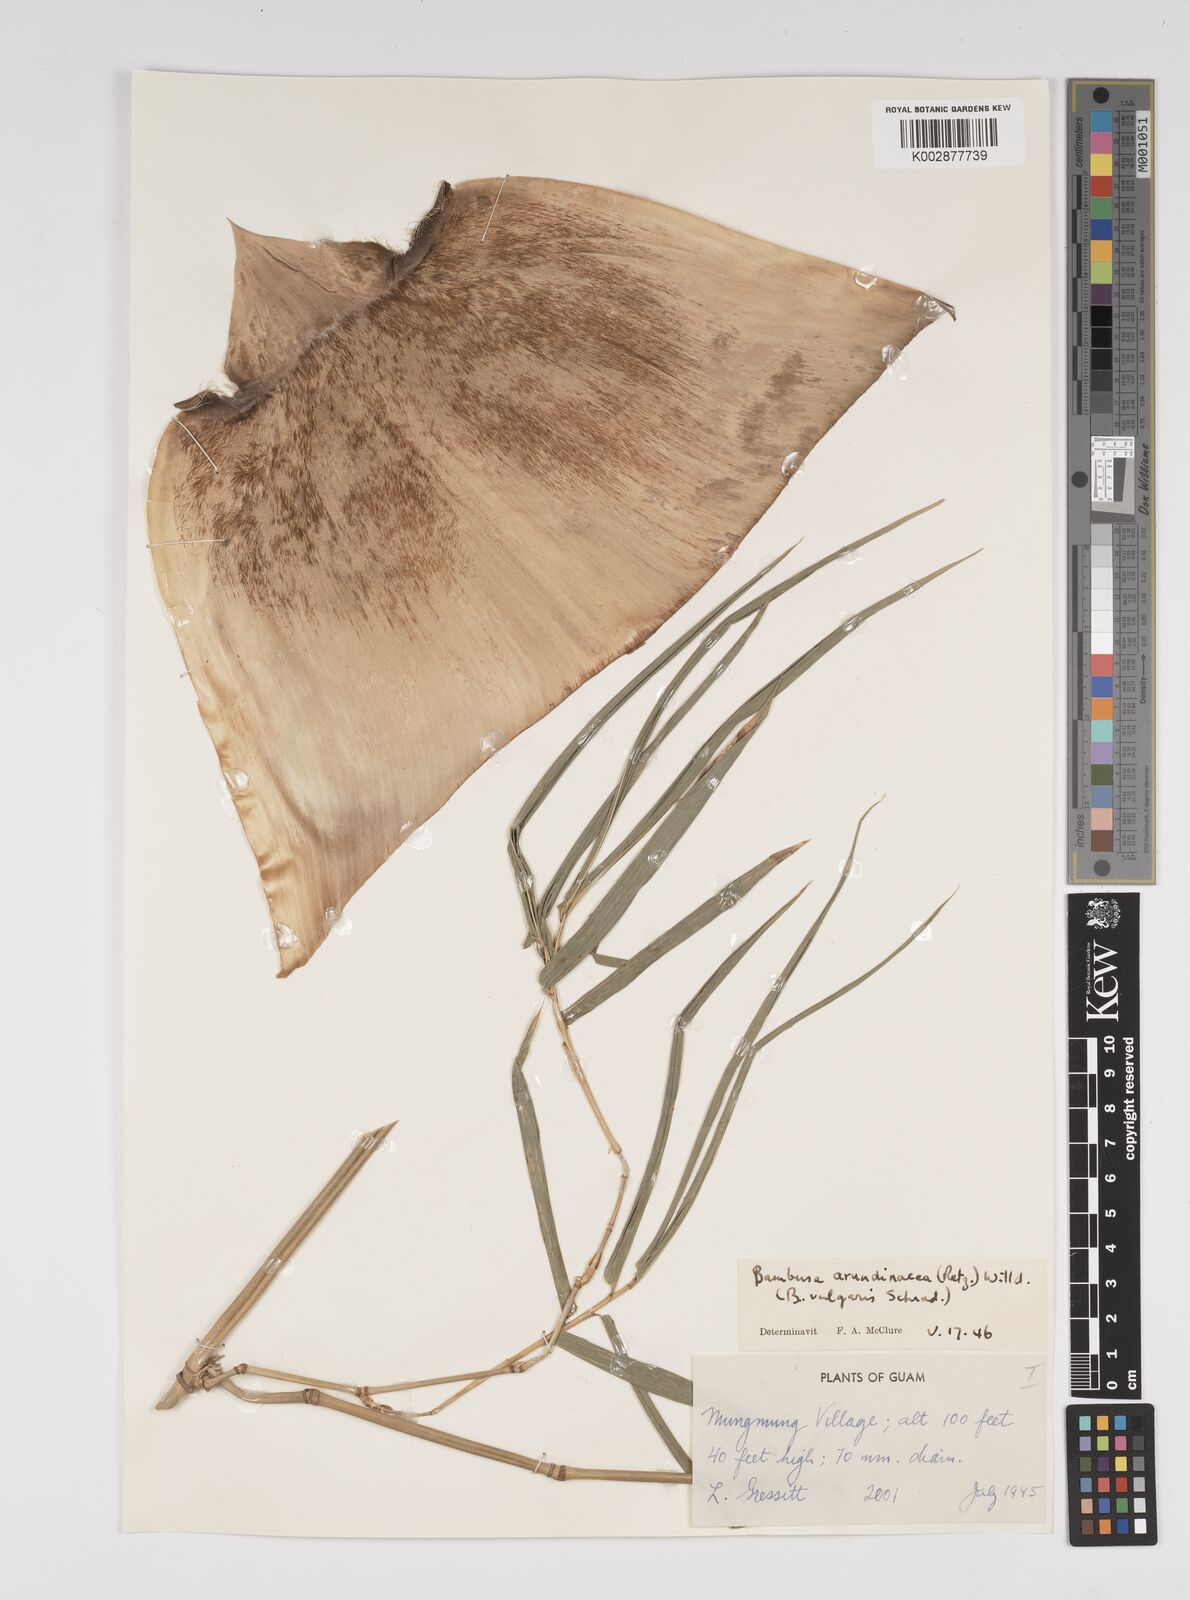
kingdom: Plantae
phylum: Tracheophyta
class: Liliopsida
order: Poales
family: Poaceae
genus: Bambusa
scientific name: Bambusa vulgaris
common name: Common bamboo
